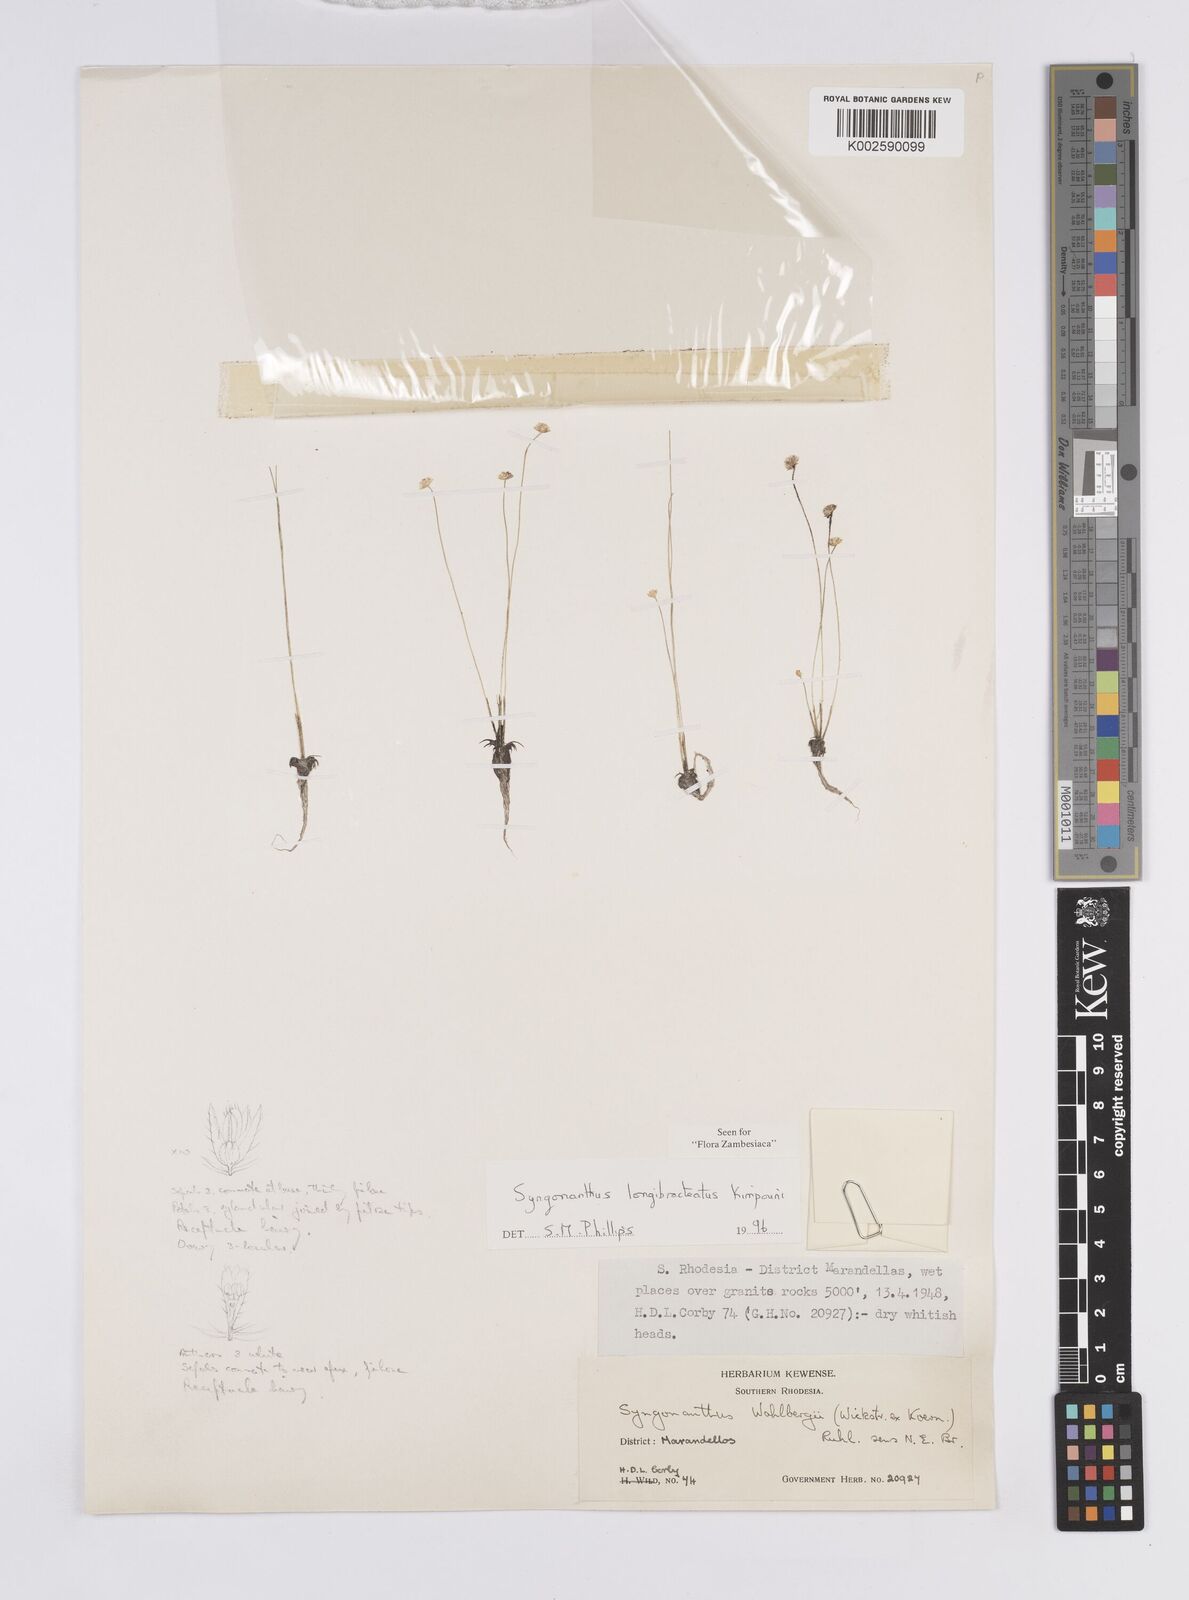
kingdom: Plantae
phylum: Tracheophyta
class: Liliopsida
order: Poales
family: Eriocaulaceae
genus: Syngonanthus
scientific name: Syngonanthus longibracteatus
